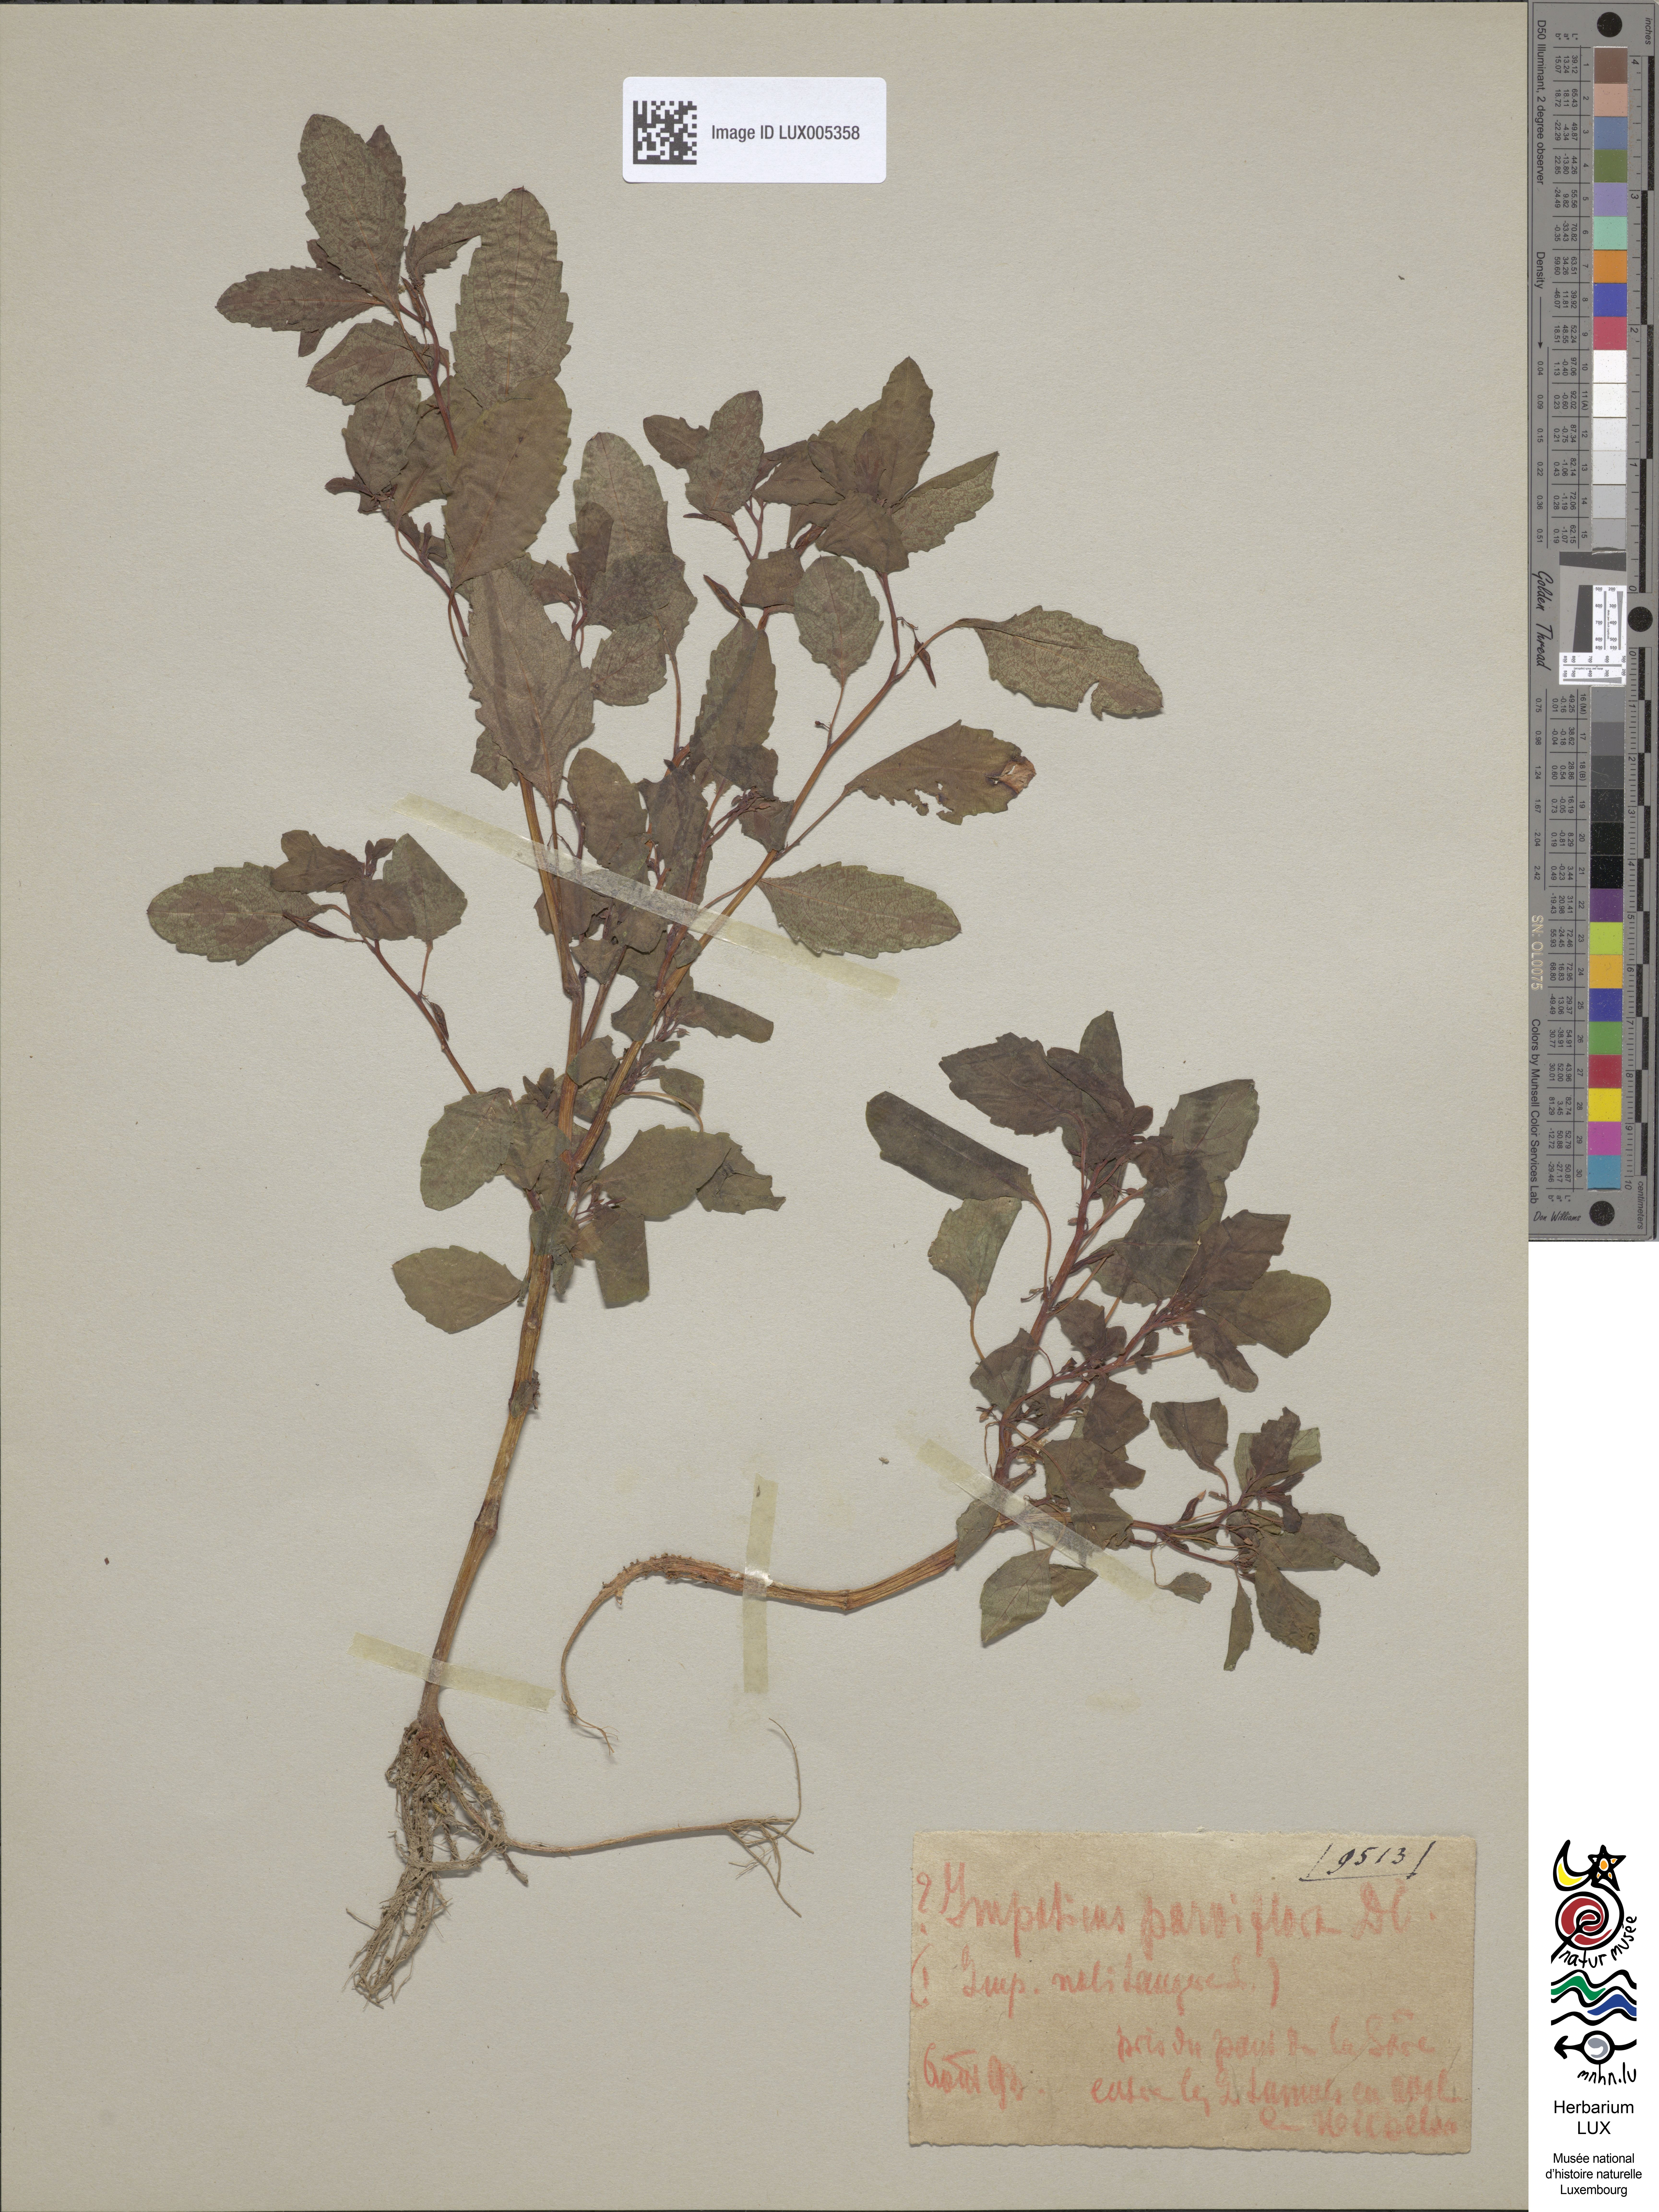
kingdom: Plantae
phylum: Tracheophyta
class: Magnoliopsida
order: Ericales
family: Balsaminaceae
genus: Impatiens
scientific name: Impatiens noli-tangere
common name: Touch-me-not balsam
